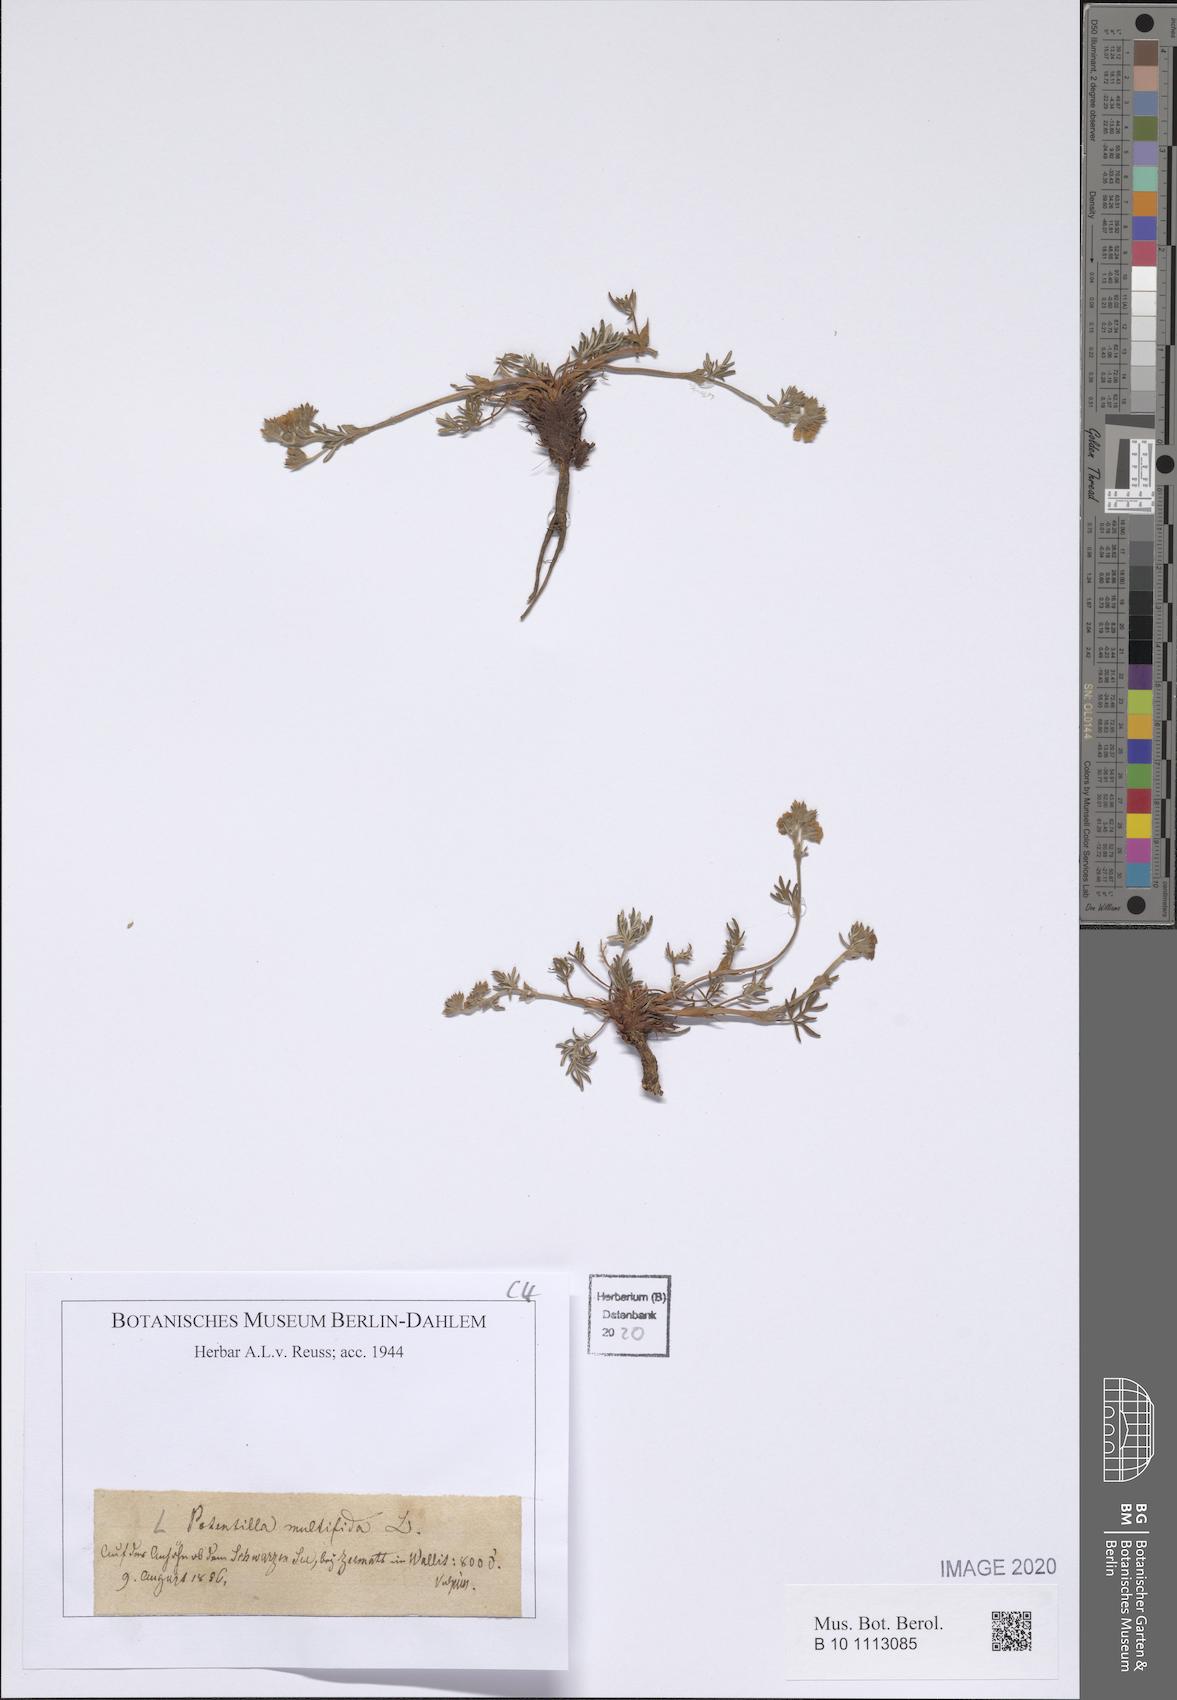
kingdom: Plantae
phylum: Tracheophyta
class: Magnoliopsida
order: Rosales
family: Rosaceae
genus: Potentilla
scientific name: Potentilla multifida
